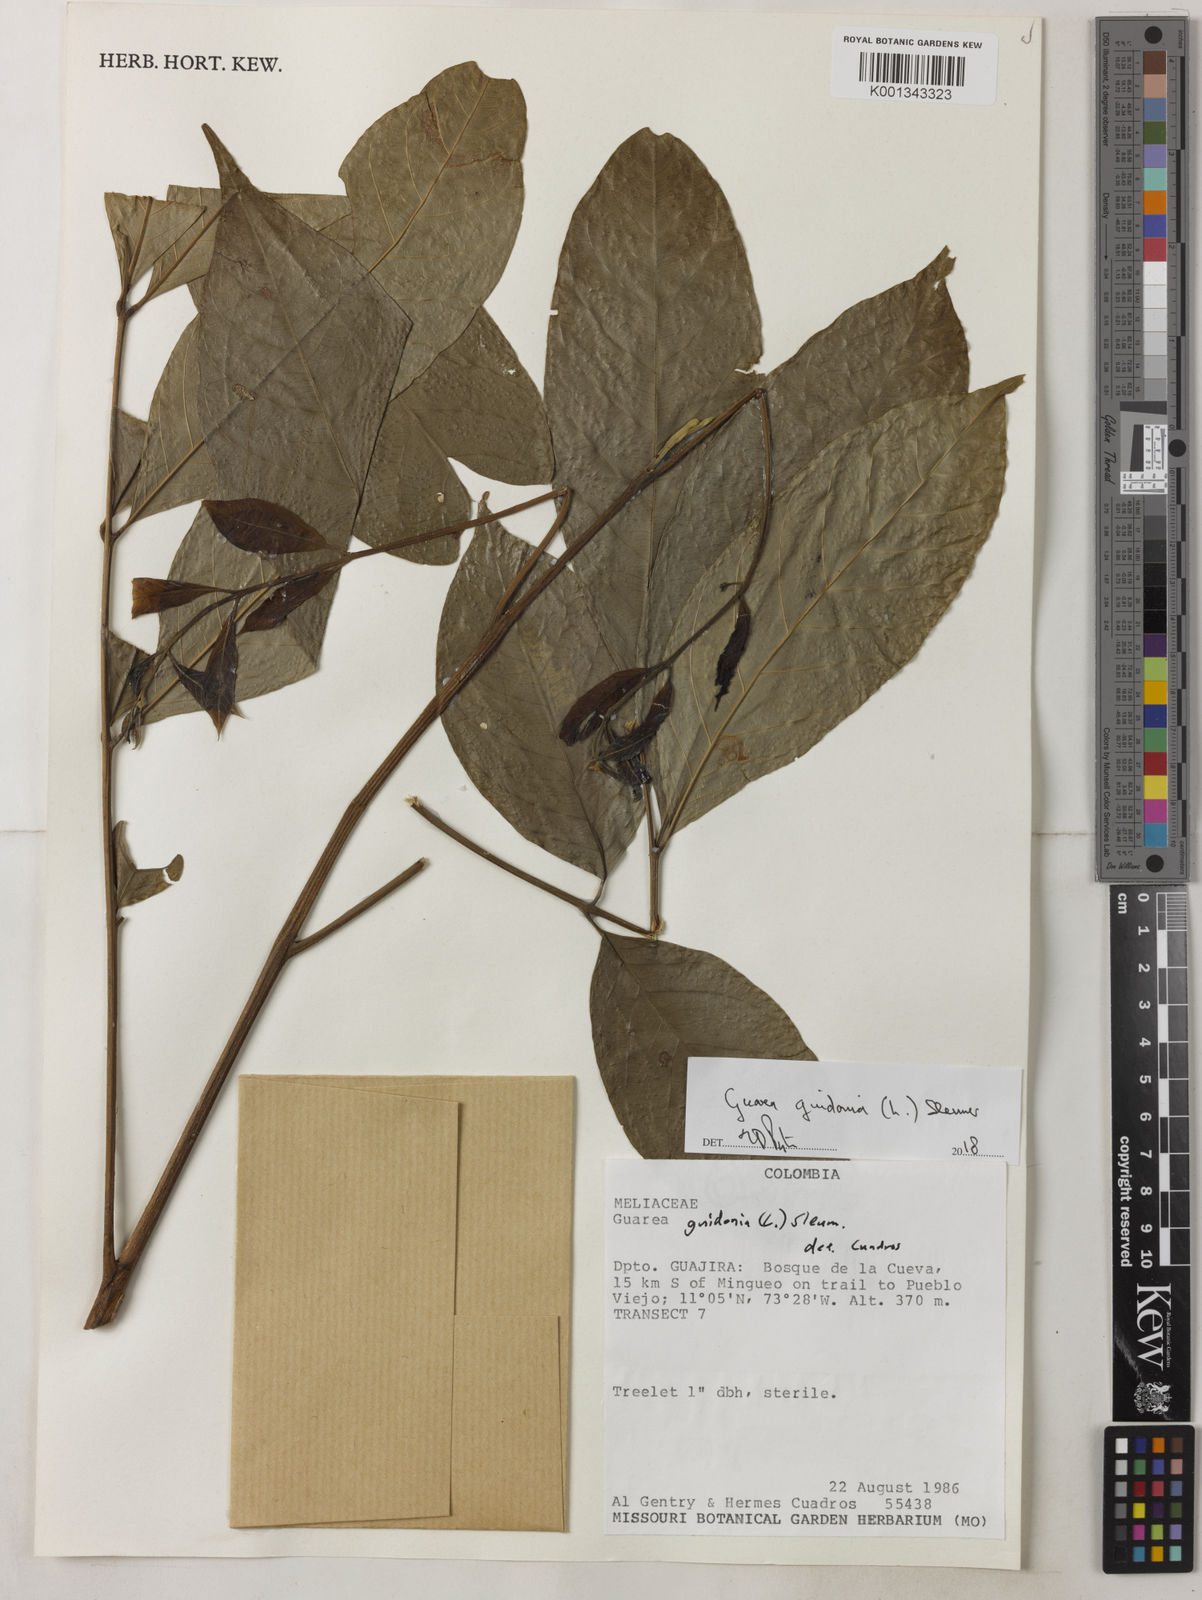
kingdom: Plantae
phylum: Tracheophyta
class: Magnoliopsida
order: Sapindales
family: Meliaceae
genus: Guarea
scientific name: Guarea guidonia
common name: American muskwood
